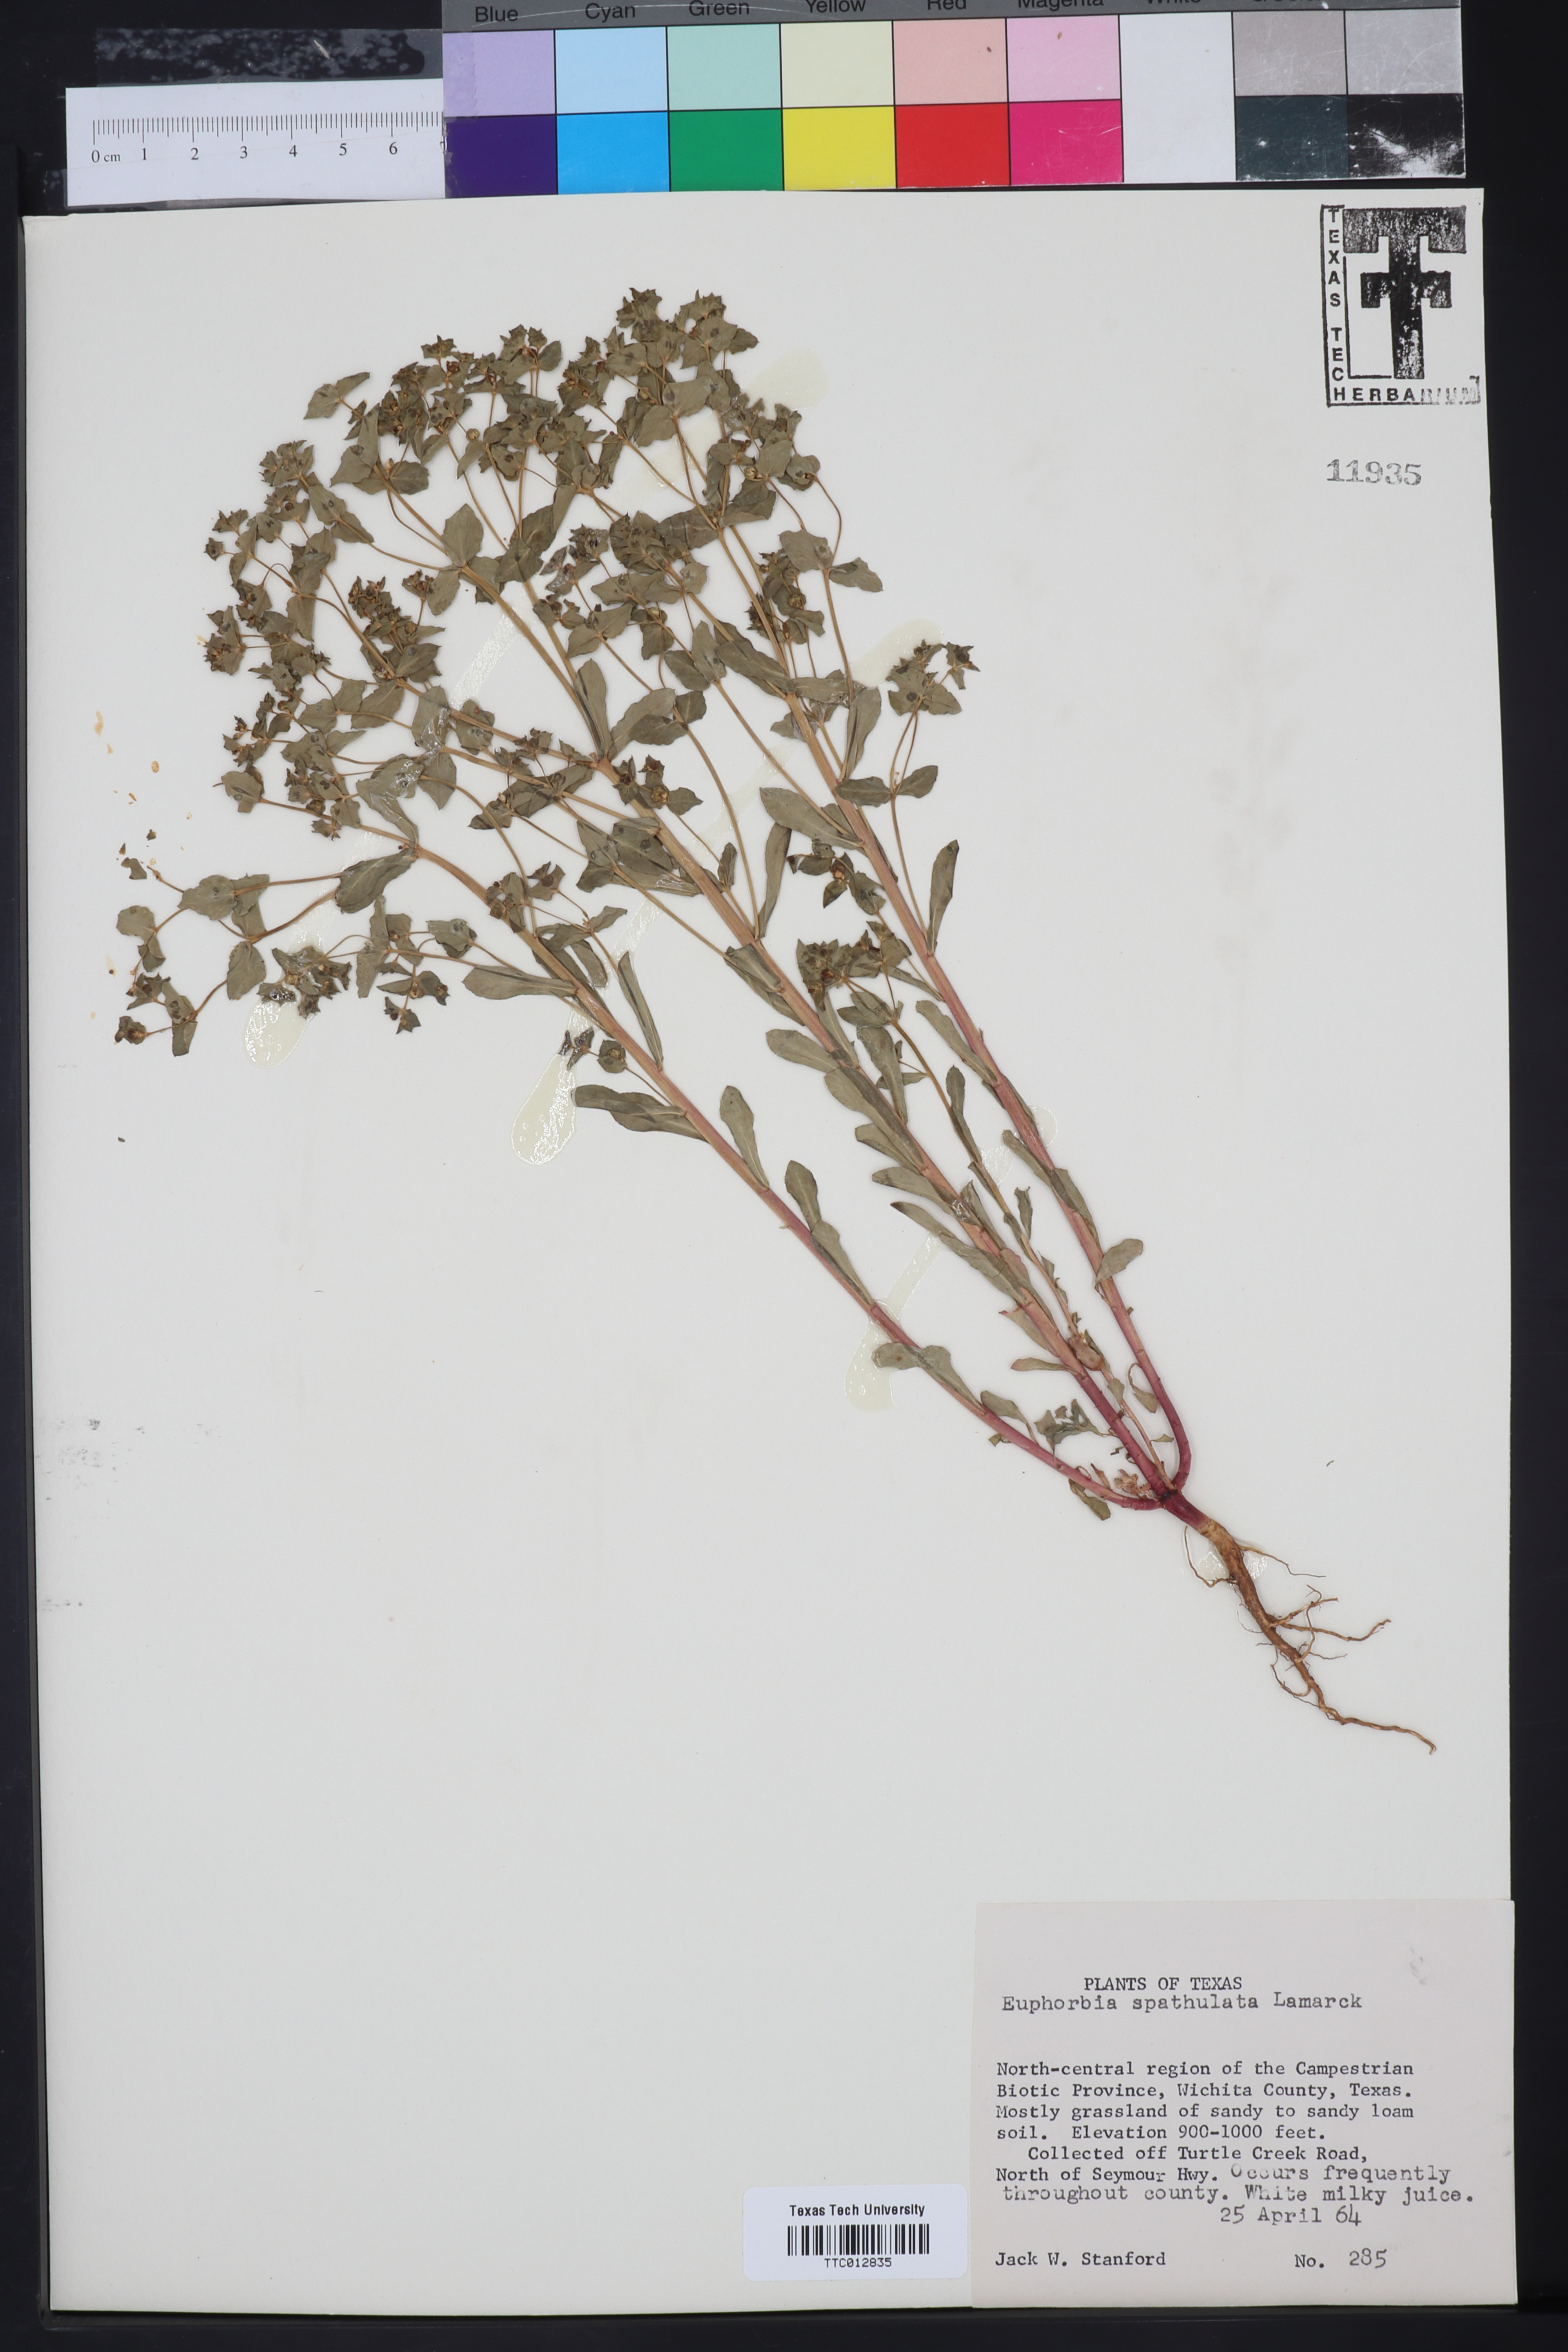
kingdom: Plantae
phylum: Tracheophyta
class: Magnoliopsida
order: Malpighiales
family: Euphorbiaceae
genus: Euphorbia
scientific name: Euphorbia spathulata
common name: Blunt spurge
